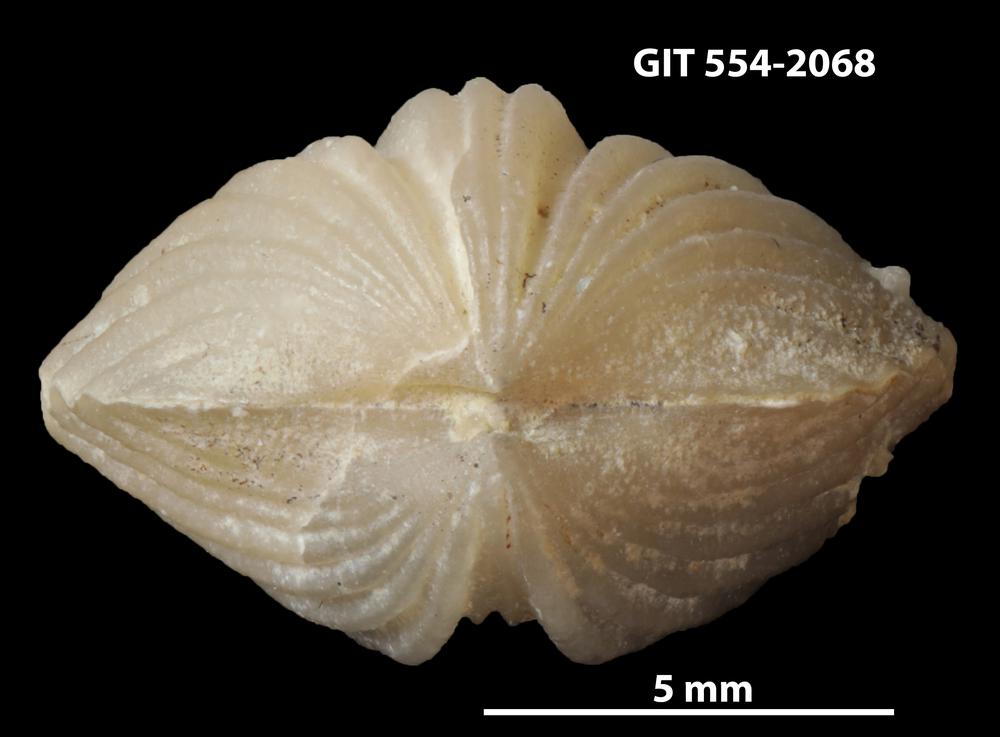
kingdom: Animalia
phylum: Brachiopoda
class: Rhynchonellata
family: Platystrophiidae
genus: Neoplatystrophia
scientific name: Neoplatystrophia Platystrophia affabilis
